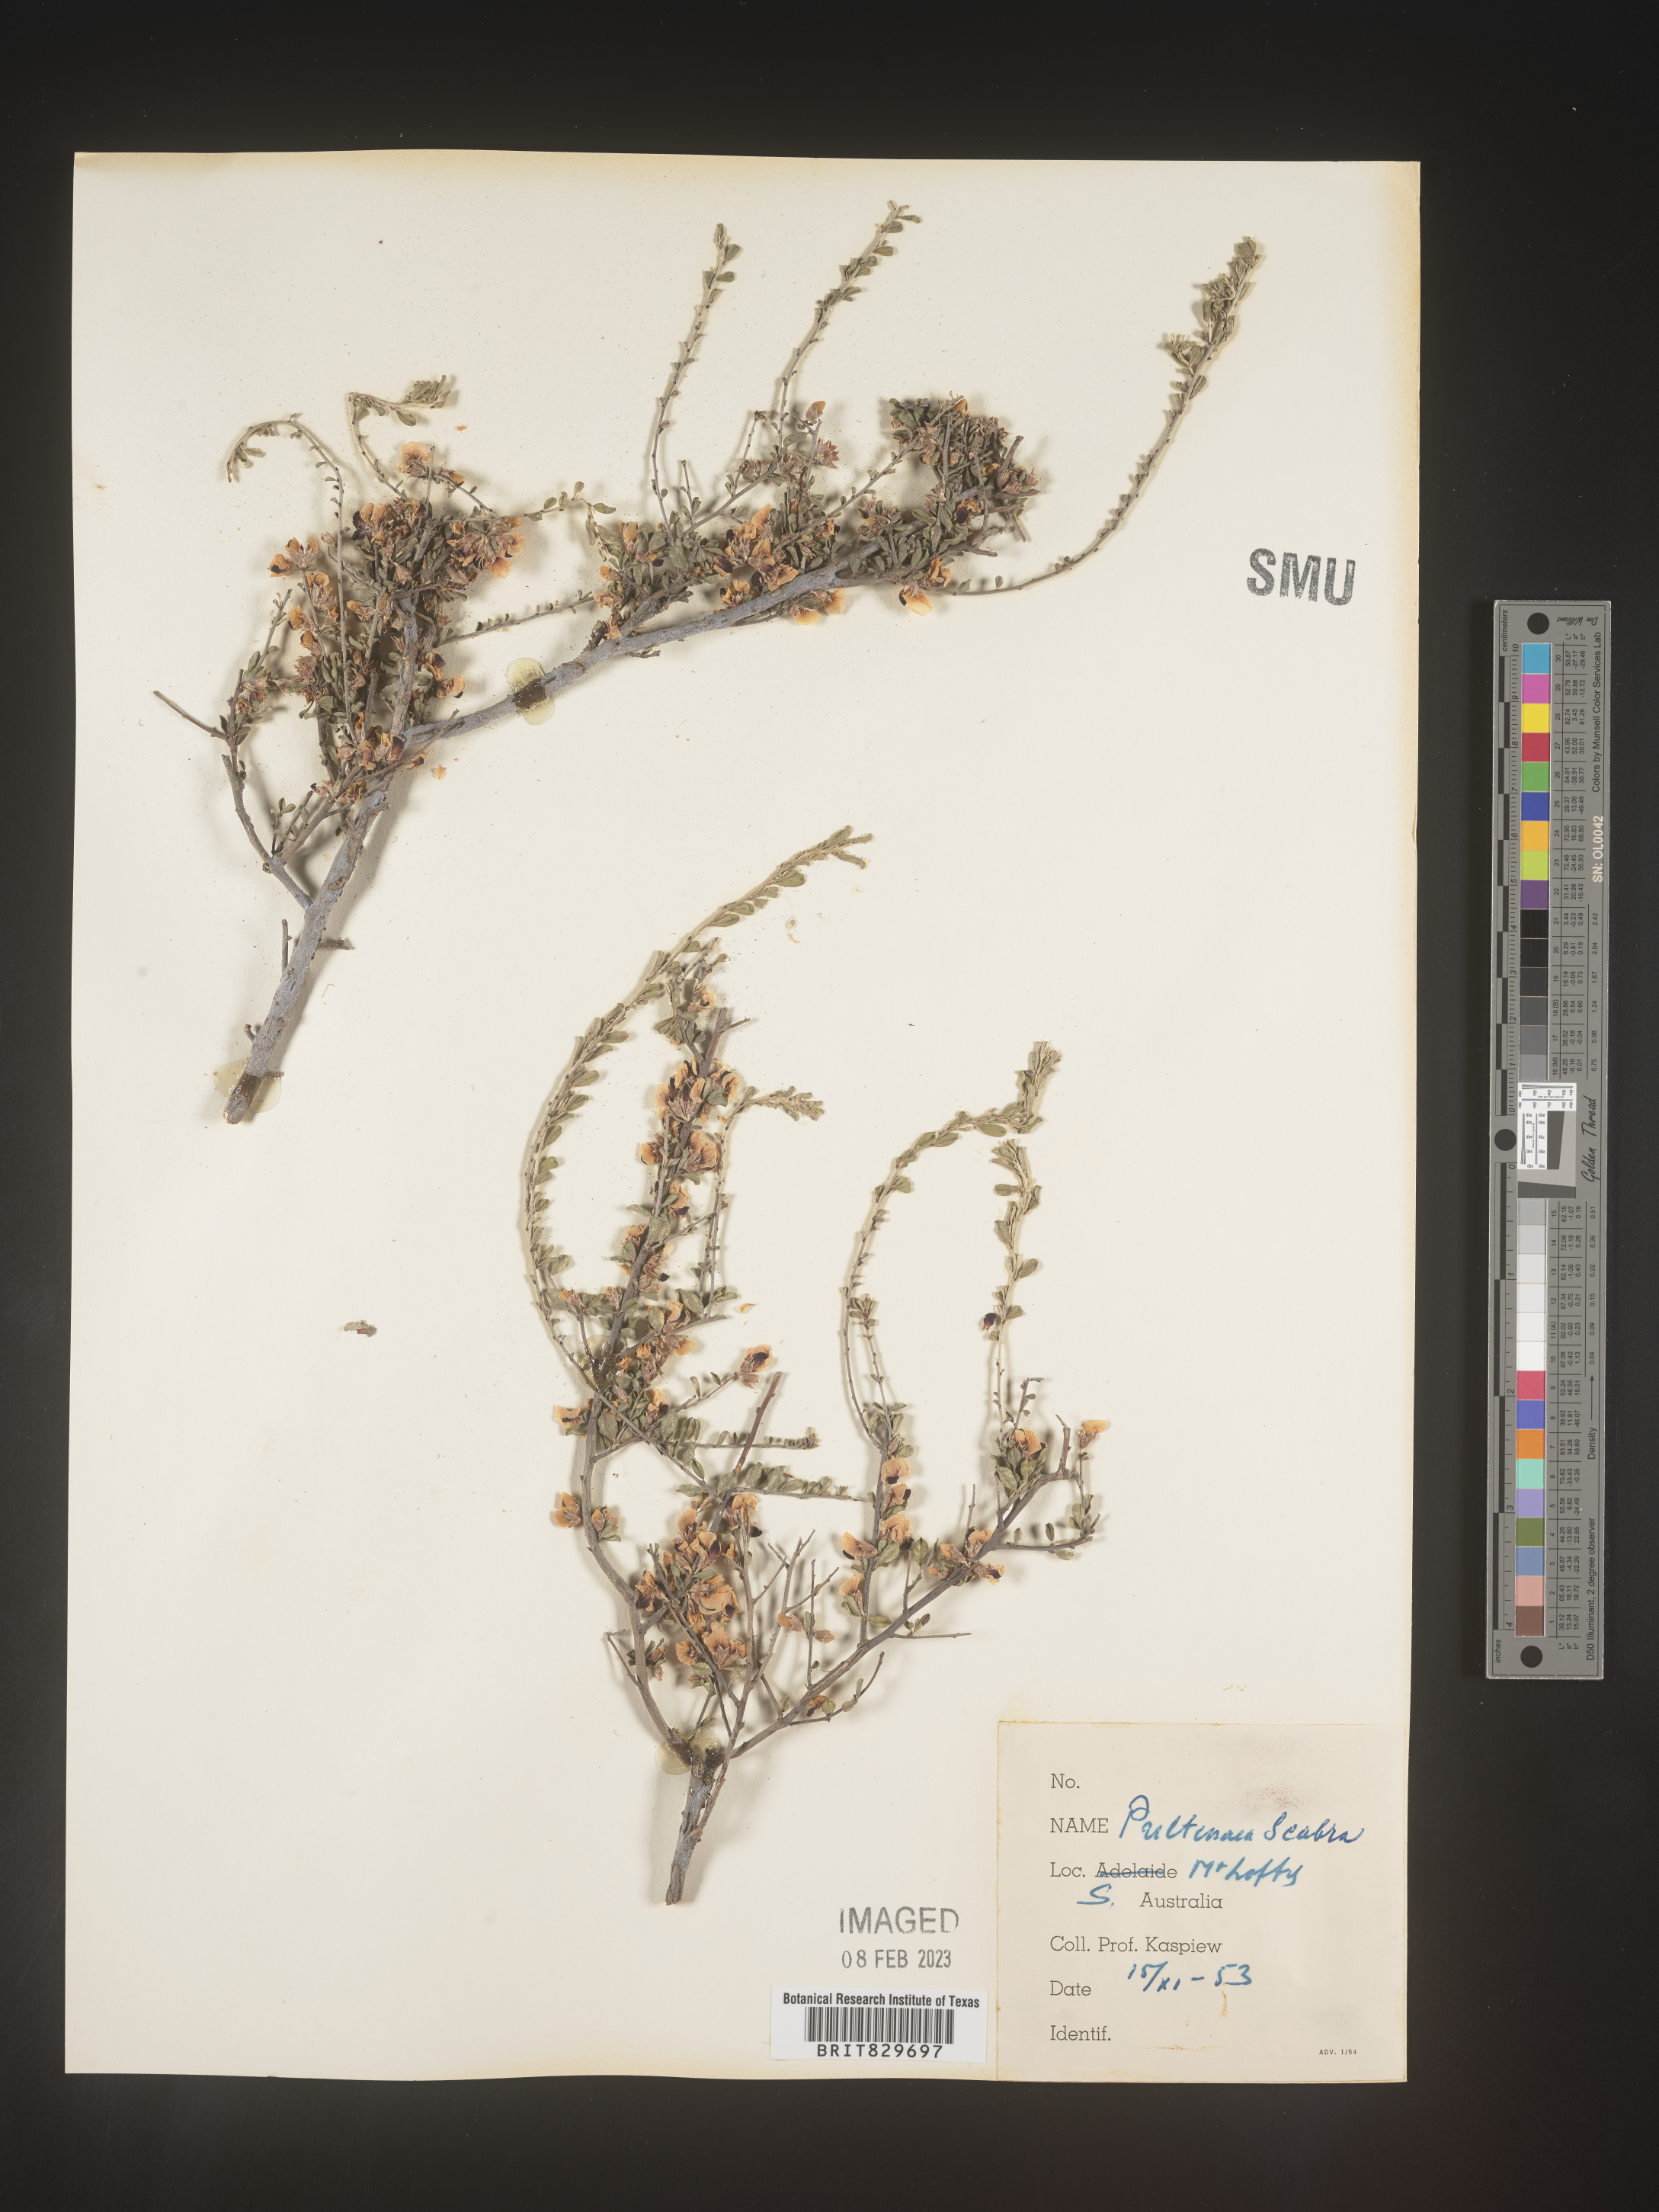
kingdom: Plantae
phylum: Tracheophyta
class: Magnoliopsida
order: Fabales
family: Fabaceae
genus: Pultenaea
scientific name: Pultenaea
